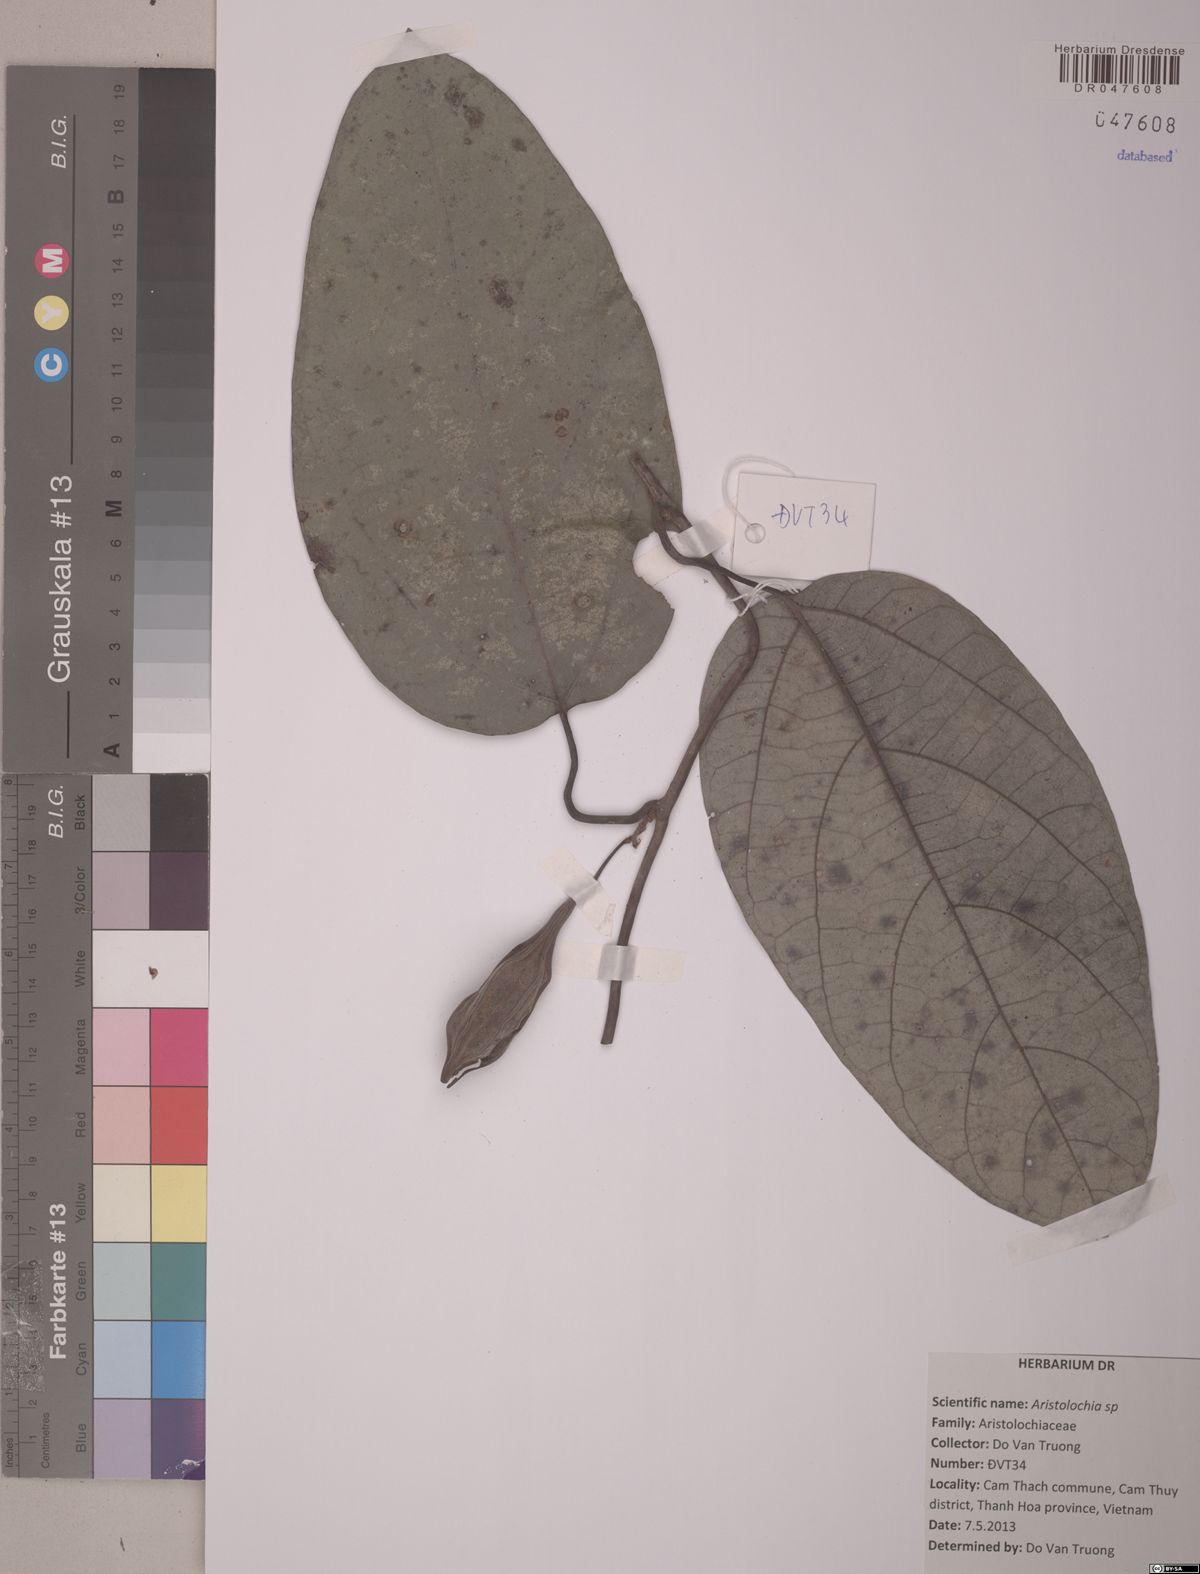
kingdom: Plantae
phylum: Tracheophyta
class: Magnoliopsida
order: Piperales
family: Aristolochiaceae
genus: Aristolochia
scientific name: Aristolochia
